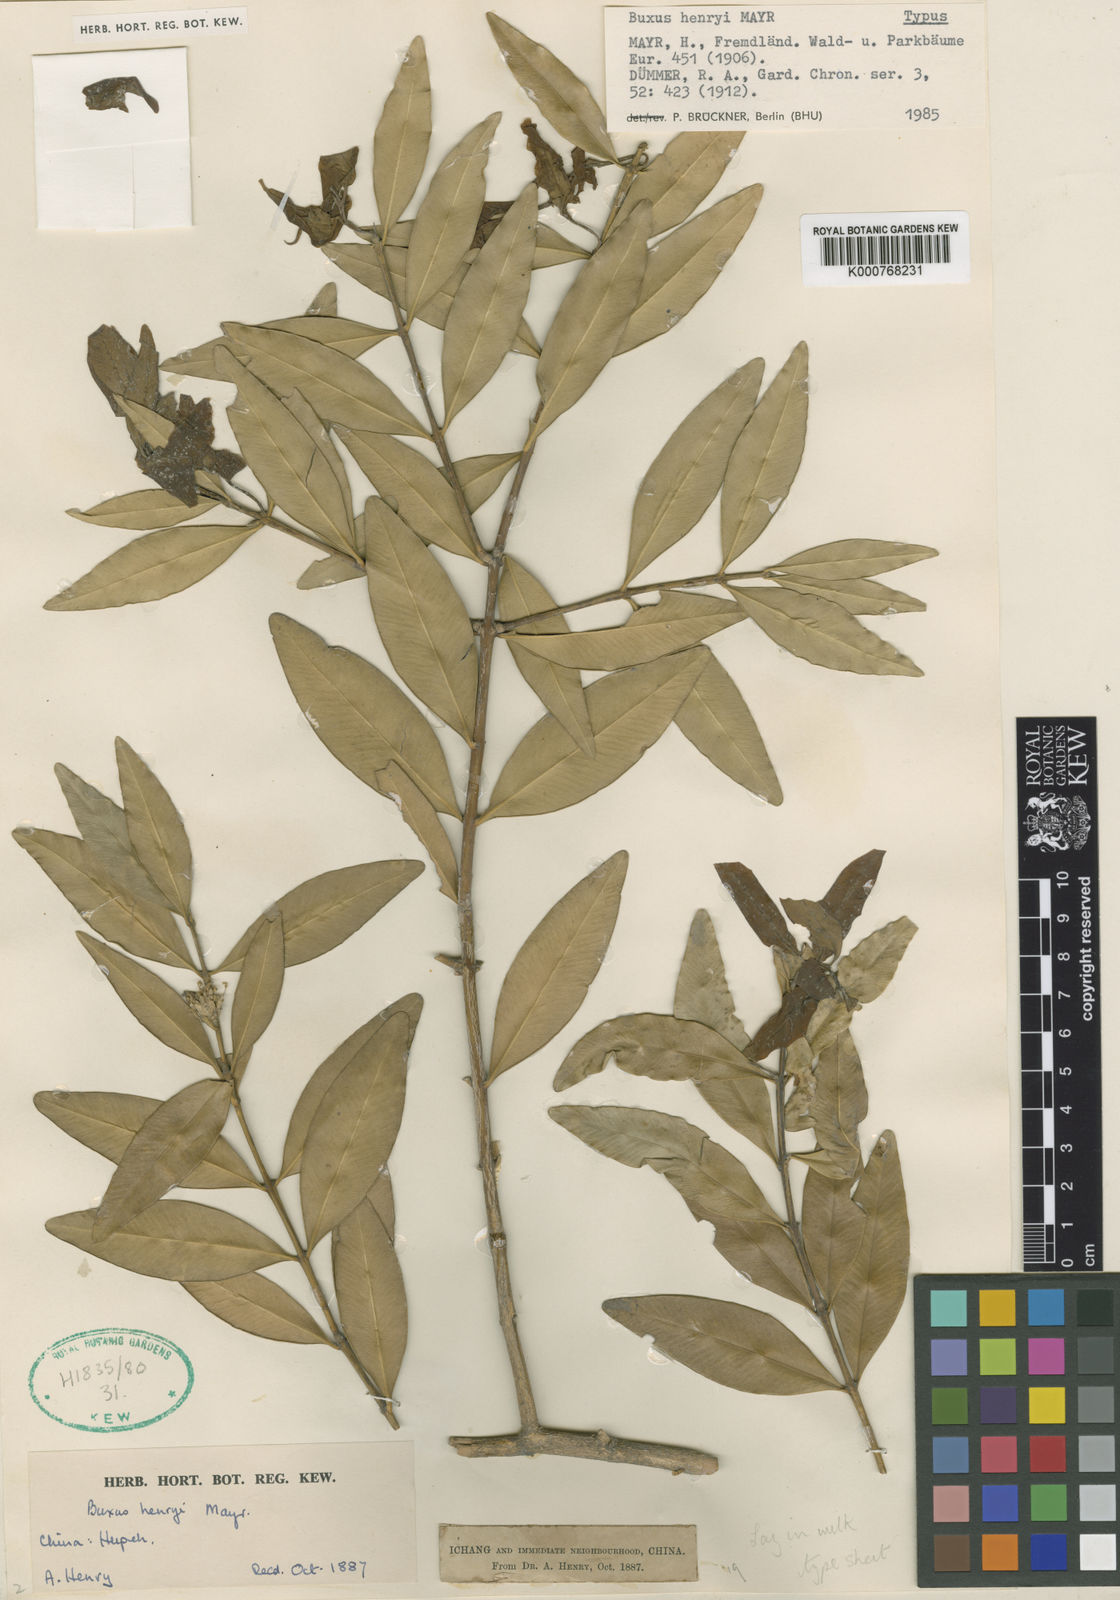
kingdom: Plantae
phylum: Tracheophyta
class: Magnoliopsida
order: Buxales
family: Buxaceae
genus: Buxus
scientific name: Buxus henryi
